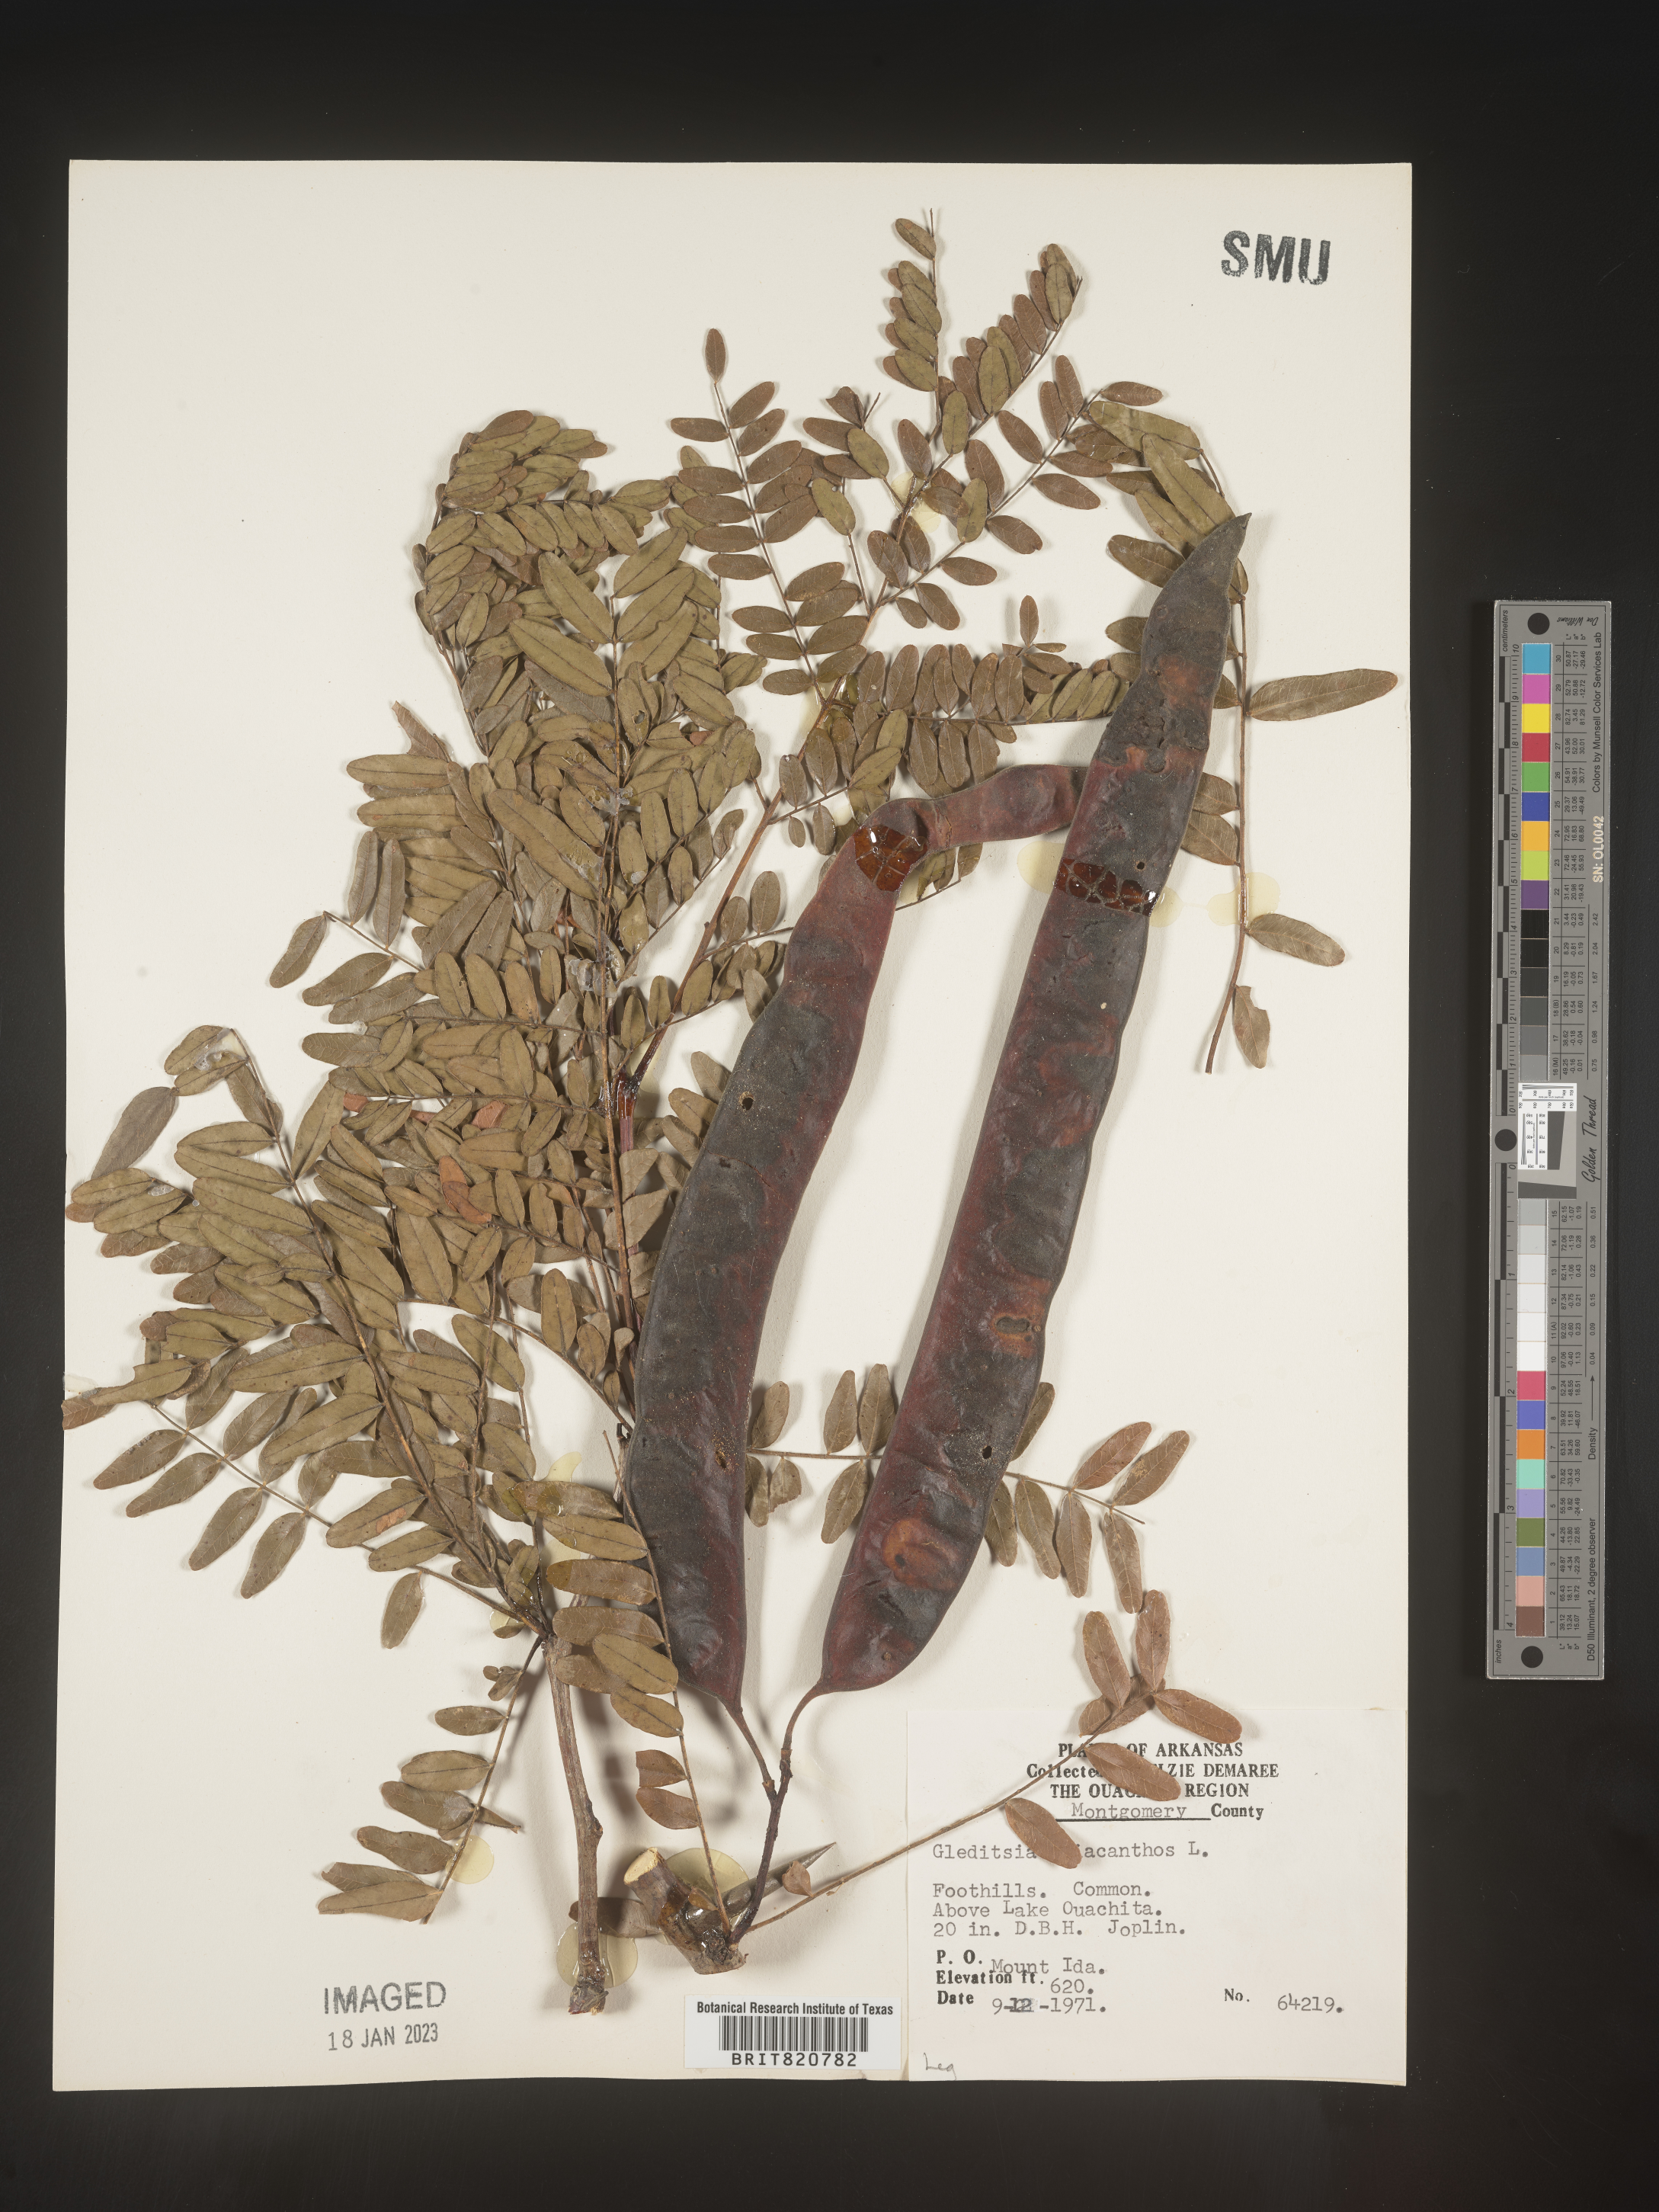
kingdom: Plantae
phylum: Tracheophyta
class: Magnoliopsida
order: Fabales
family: Fabaceae
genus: Gleditsia
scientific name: Gleditsia triacanthos
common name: Common honeylocust
